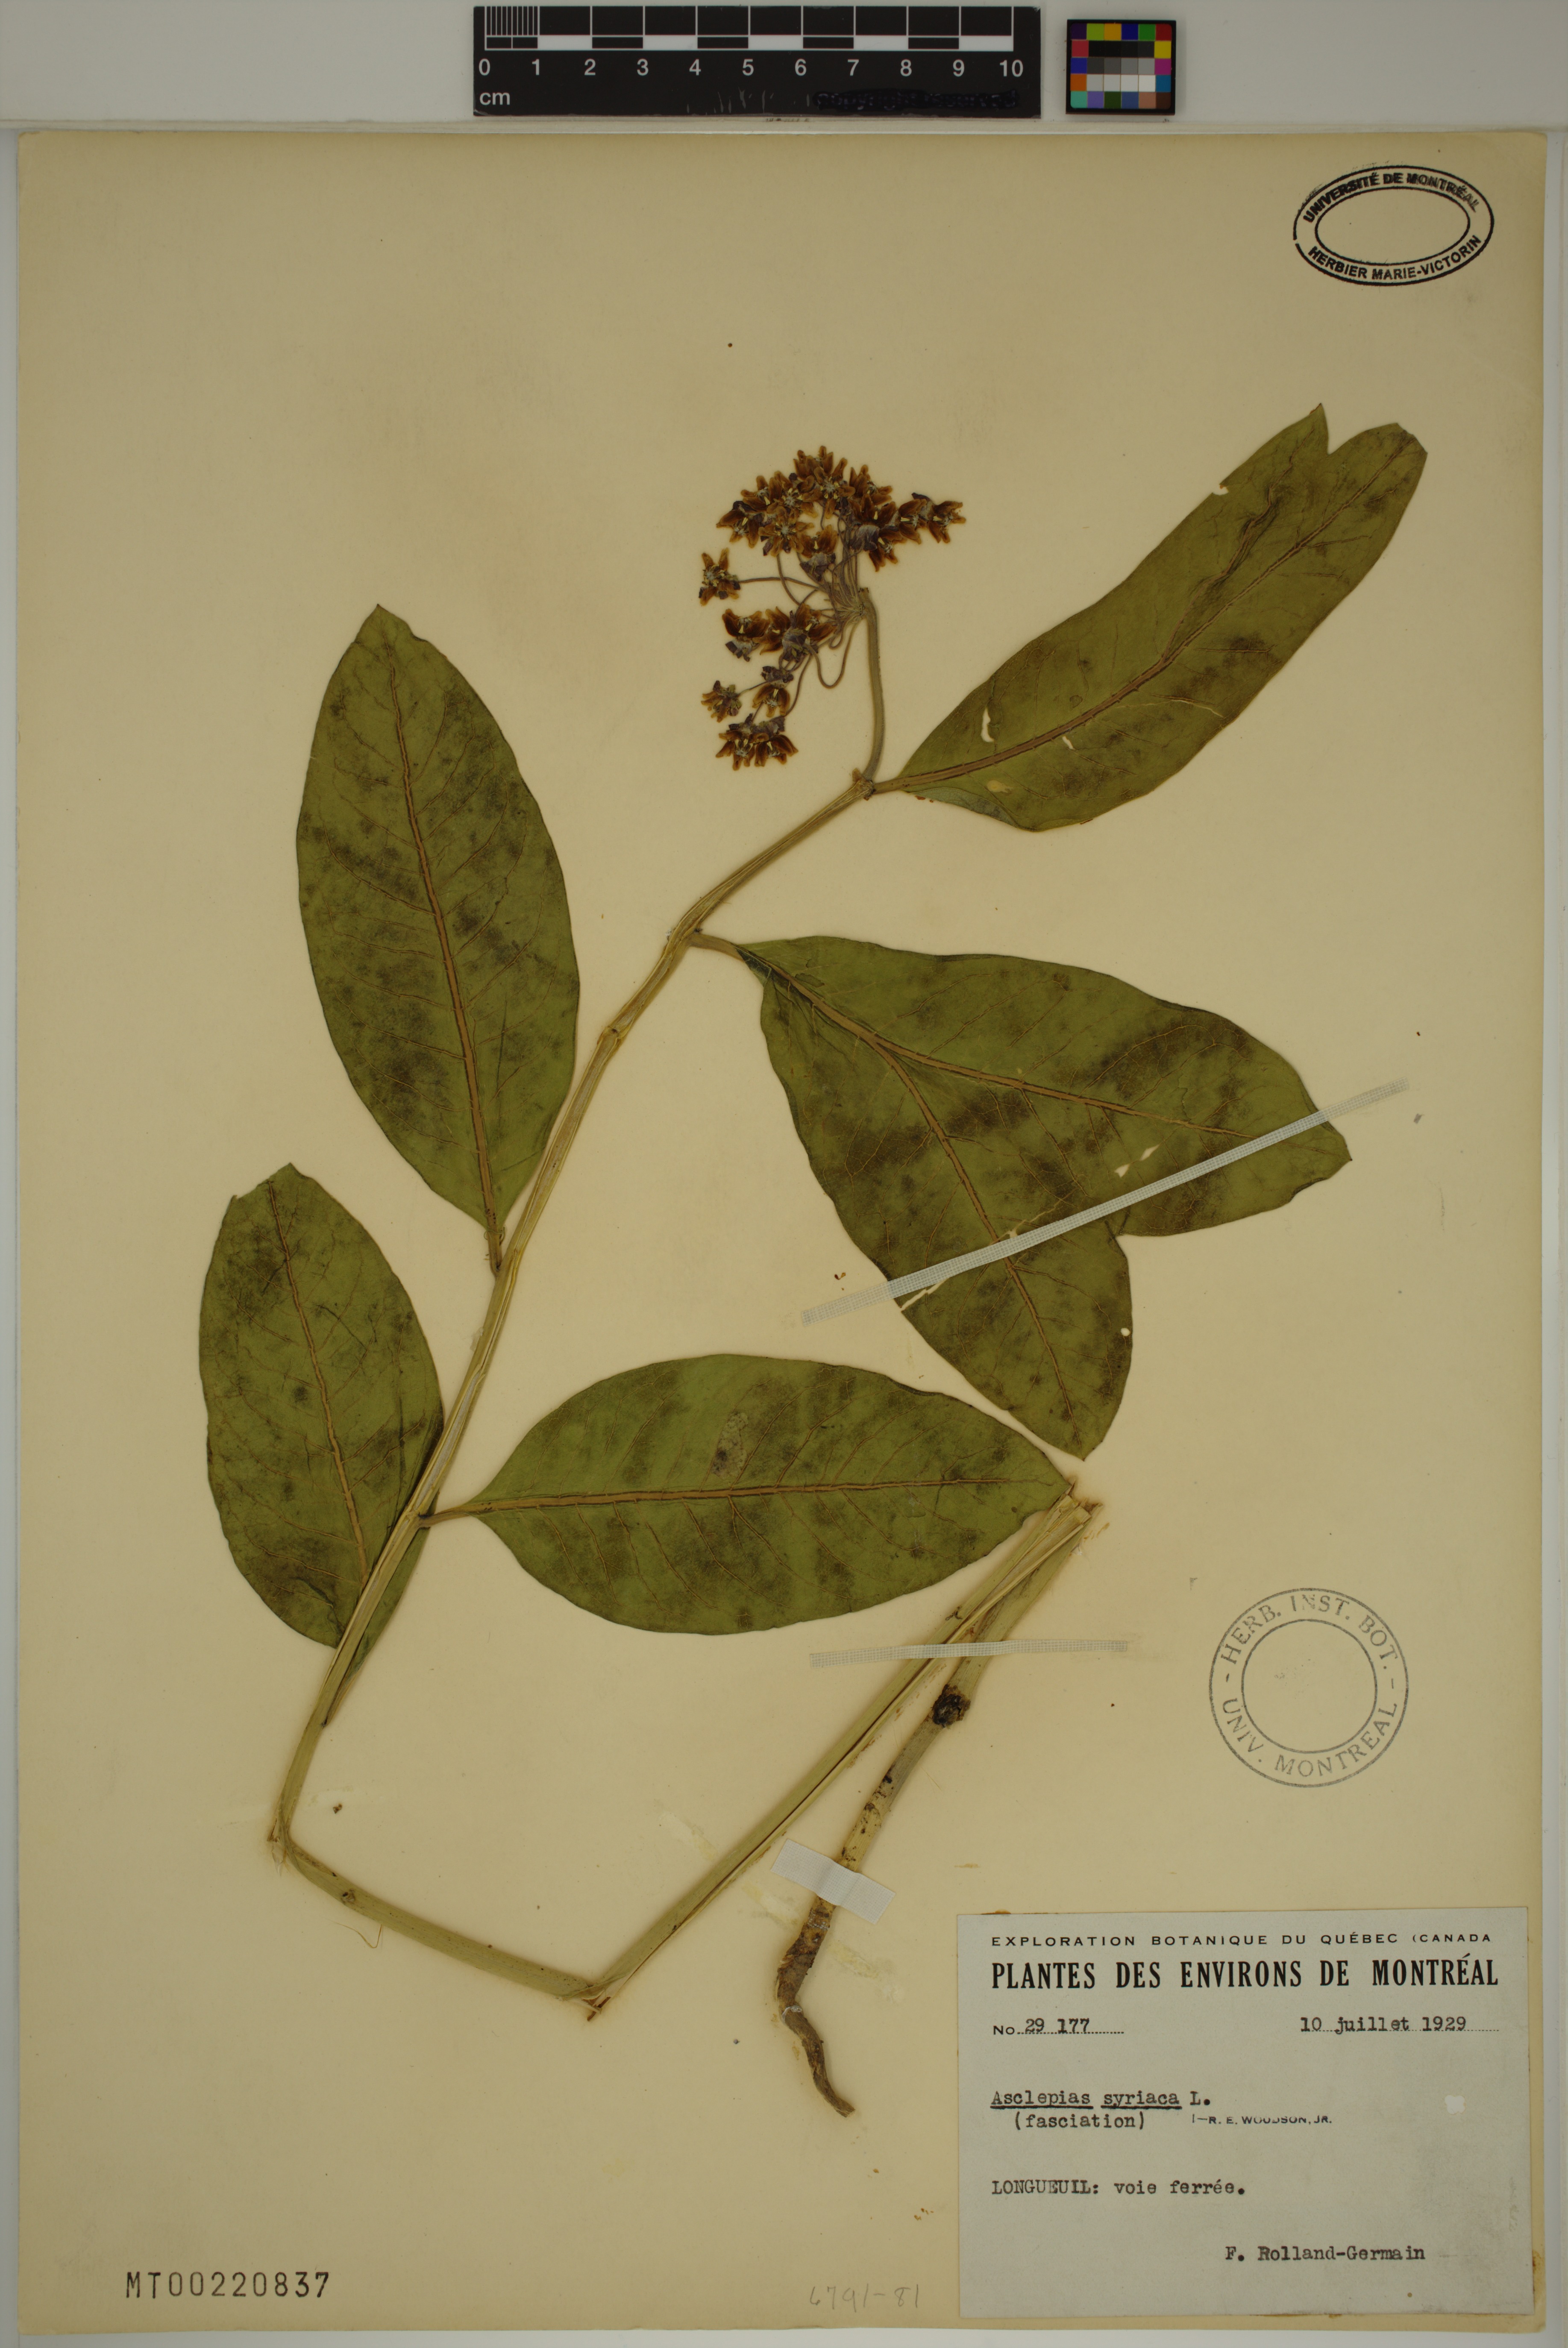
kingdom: Plantae
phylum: Tracheophyta
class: Magnoliopsida
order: Gentianales
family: Apocynaceae
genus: Asclepias
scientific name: Asclepias syriaca
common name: Common milkweed
